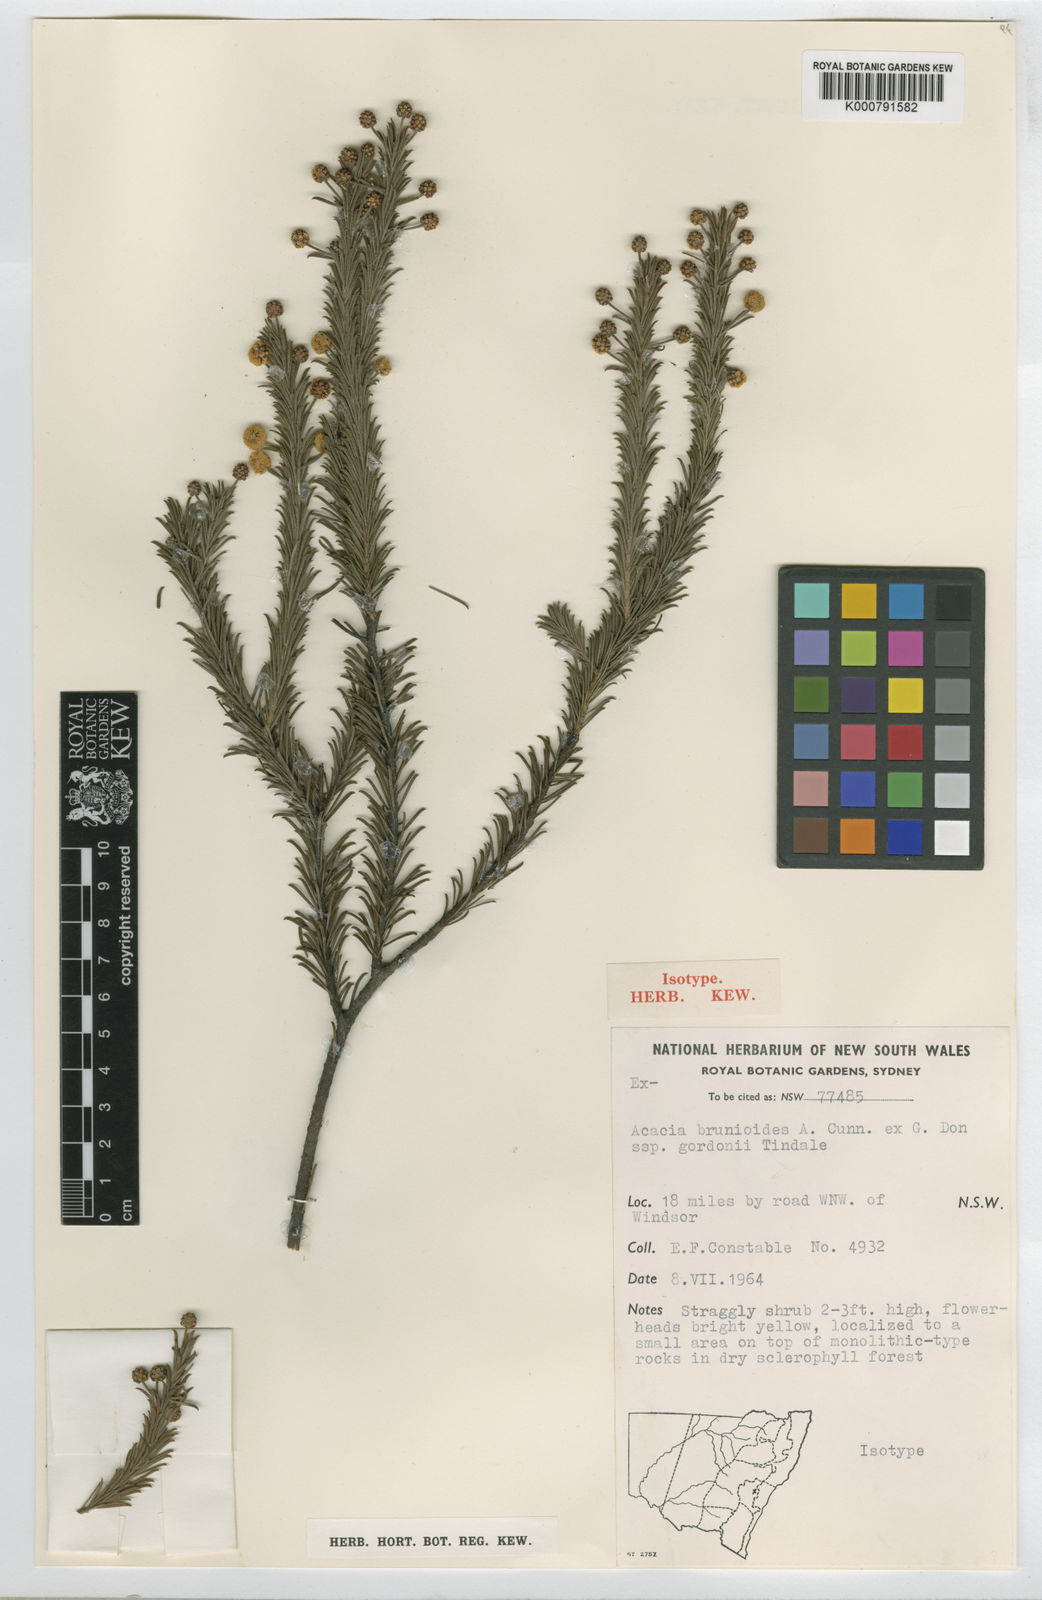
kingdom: Plantae
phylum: Tracheophyta
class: Magnoliopsida
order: Fabales
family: Fabaceae
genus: Acacia
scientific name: Acacia brunioides
